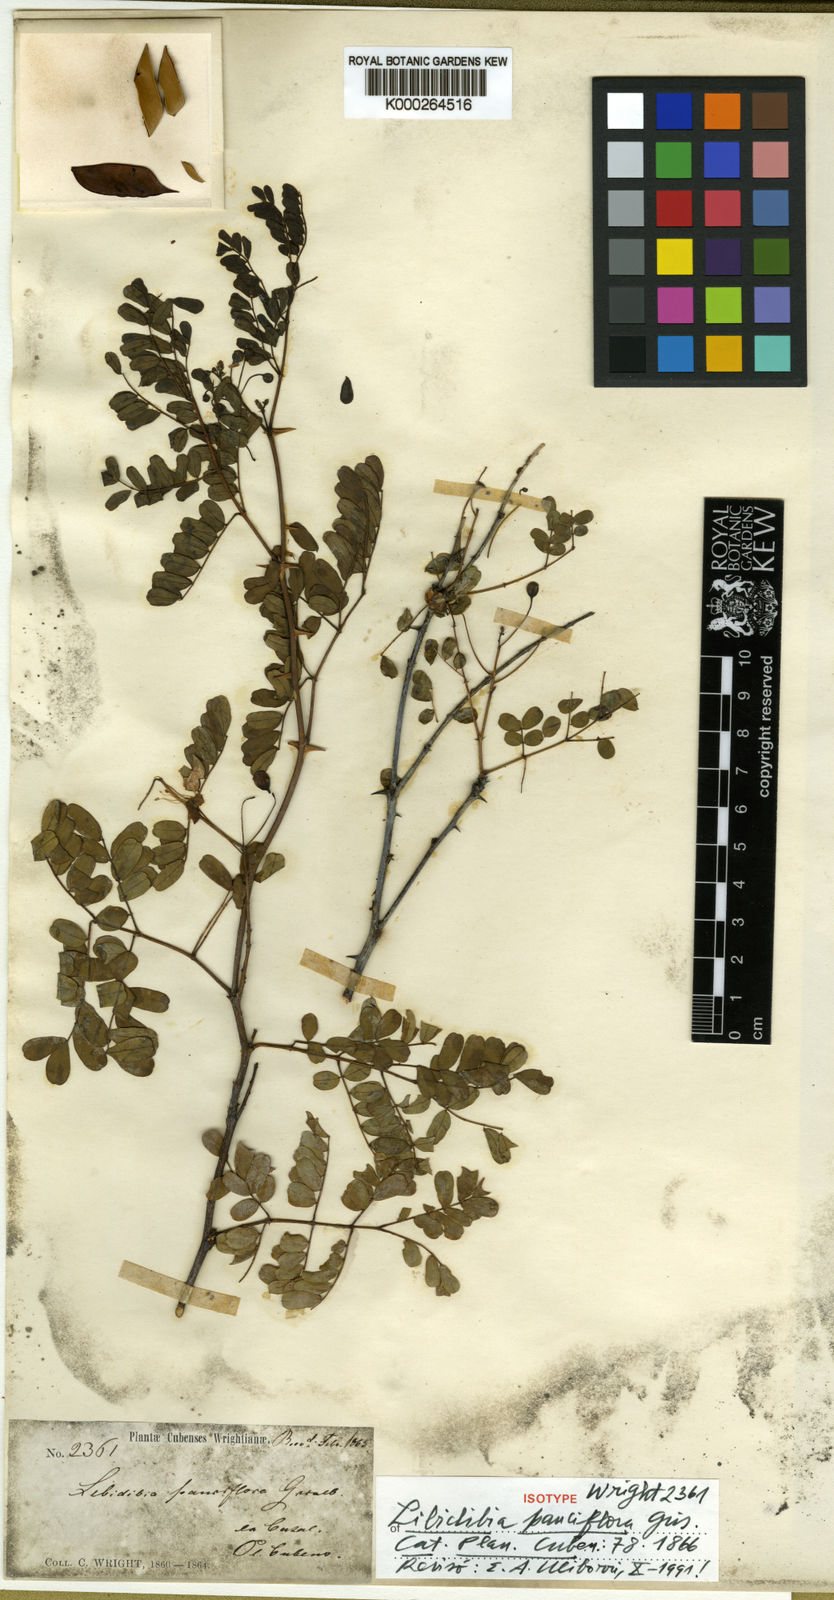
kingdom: Plantae
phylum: Tracheophyta
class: Magnoliopsida
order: Fabales
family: Fabaceae
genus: Caesalpinia
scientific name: Caesalpinia
